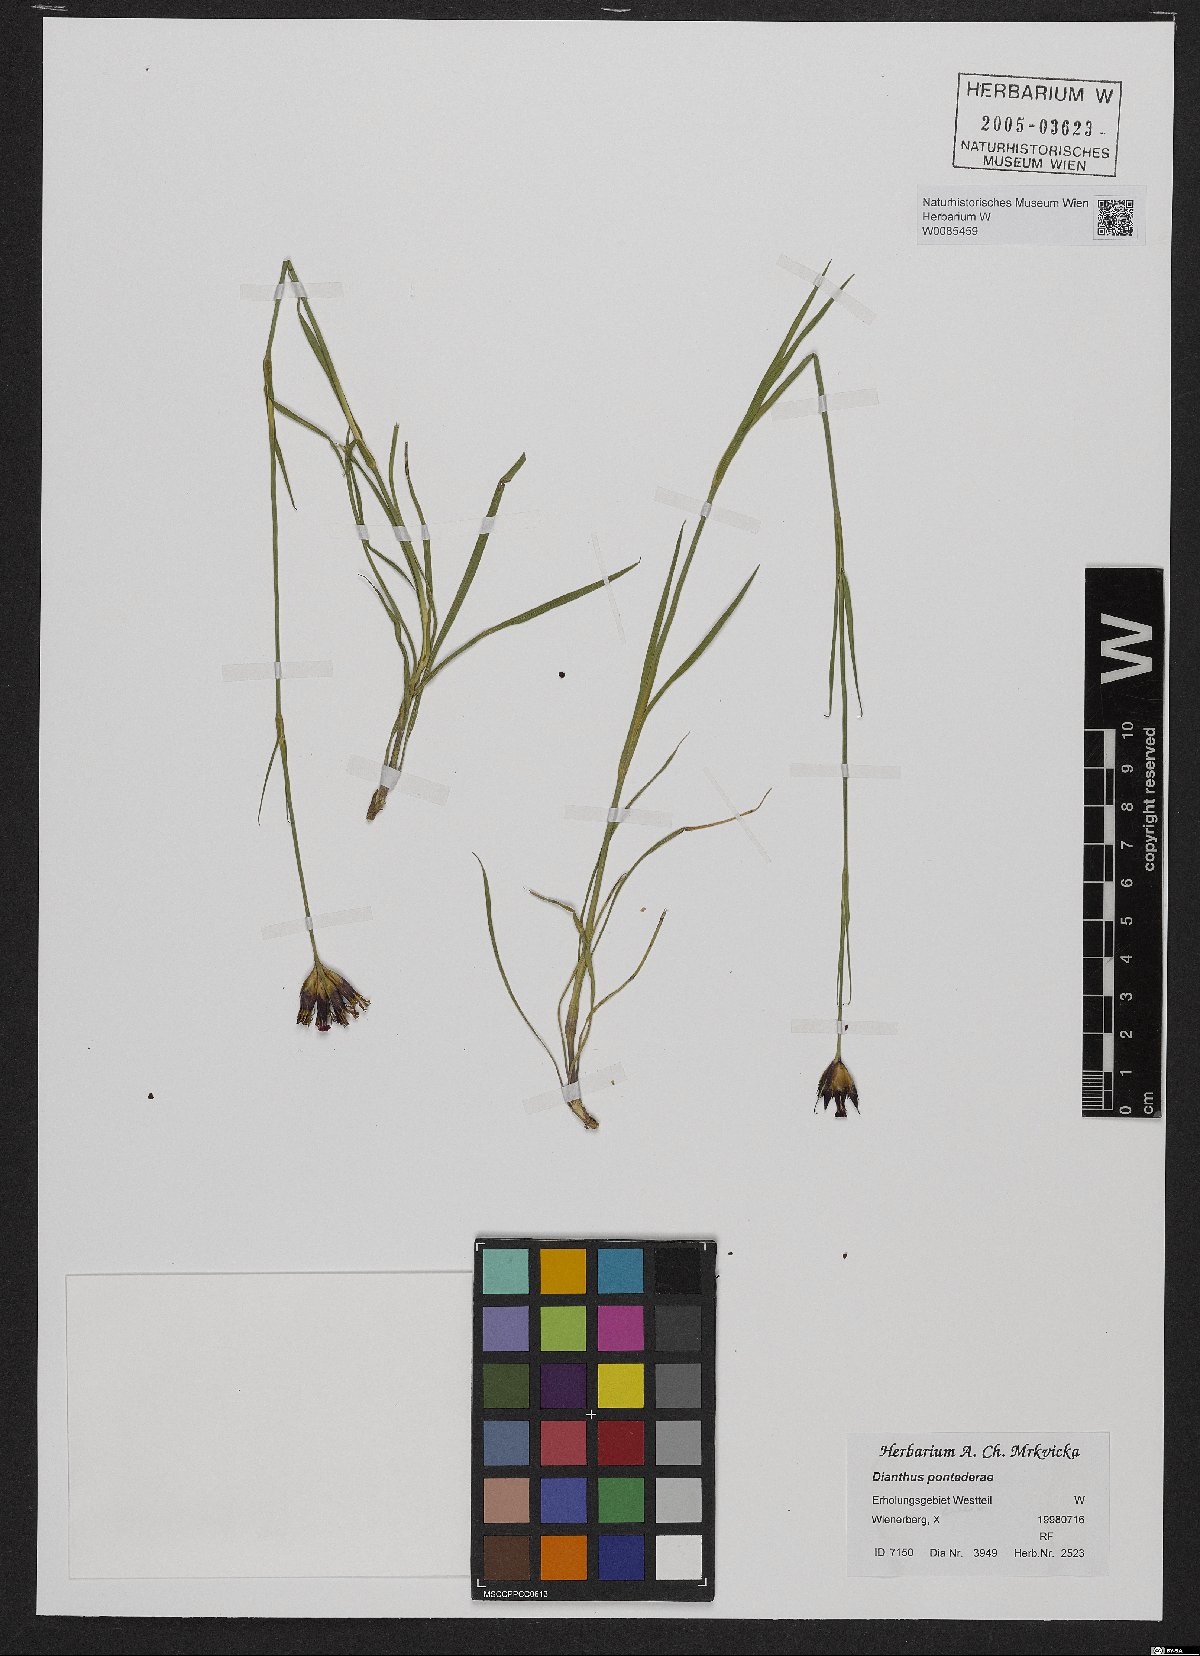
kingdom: Plantae
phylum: Tracheophyta
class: Magnoliopsida
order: Caryophyllales
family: Caryophyllaceae
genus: Dianthus
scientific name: Dianthus pontederae
